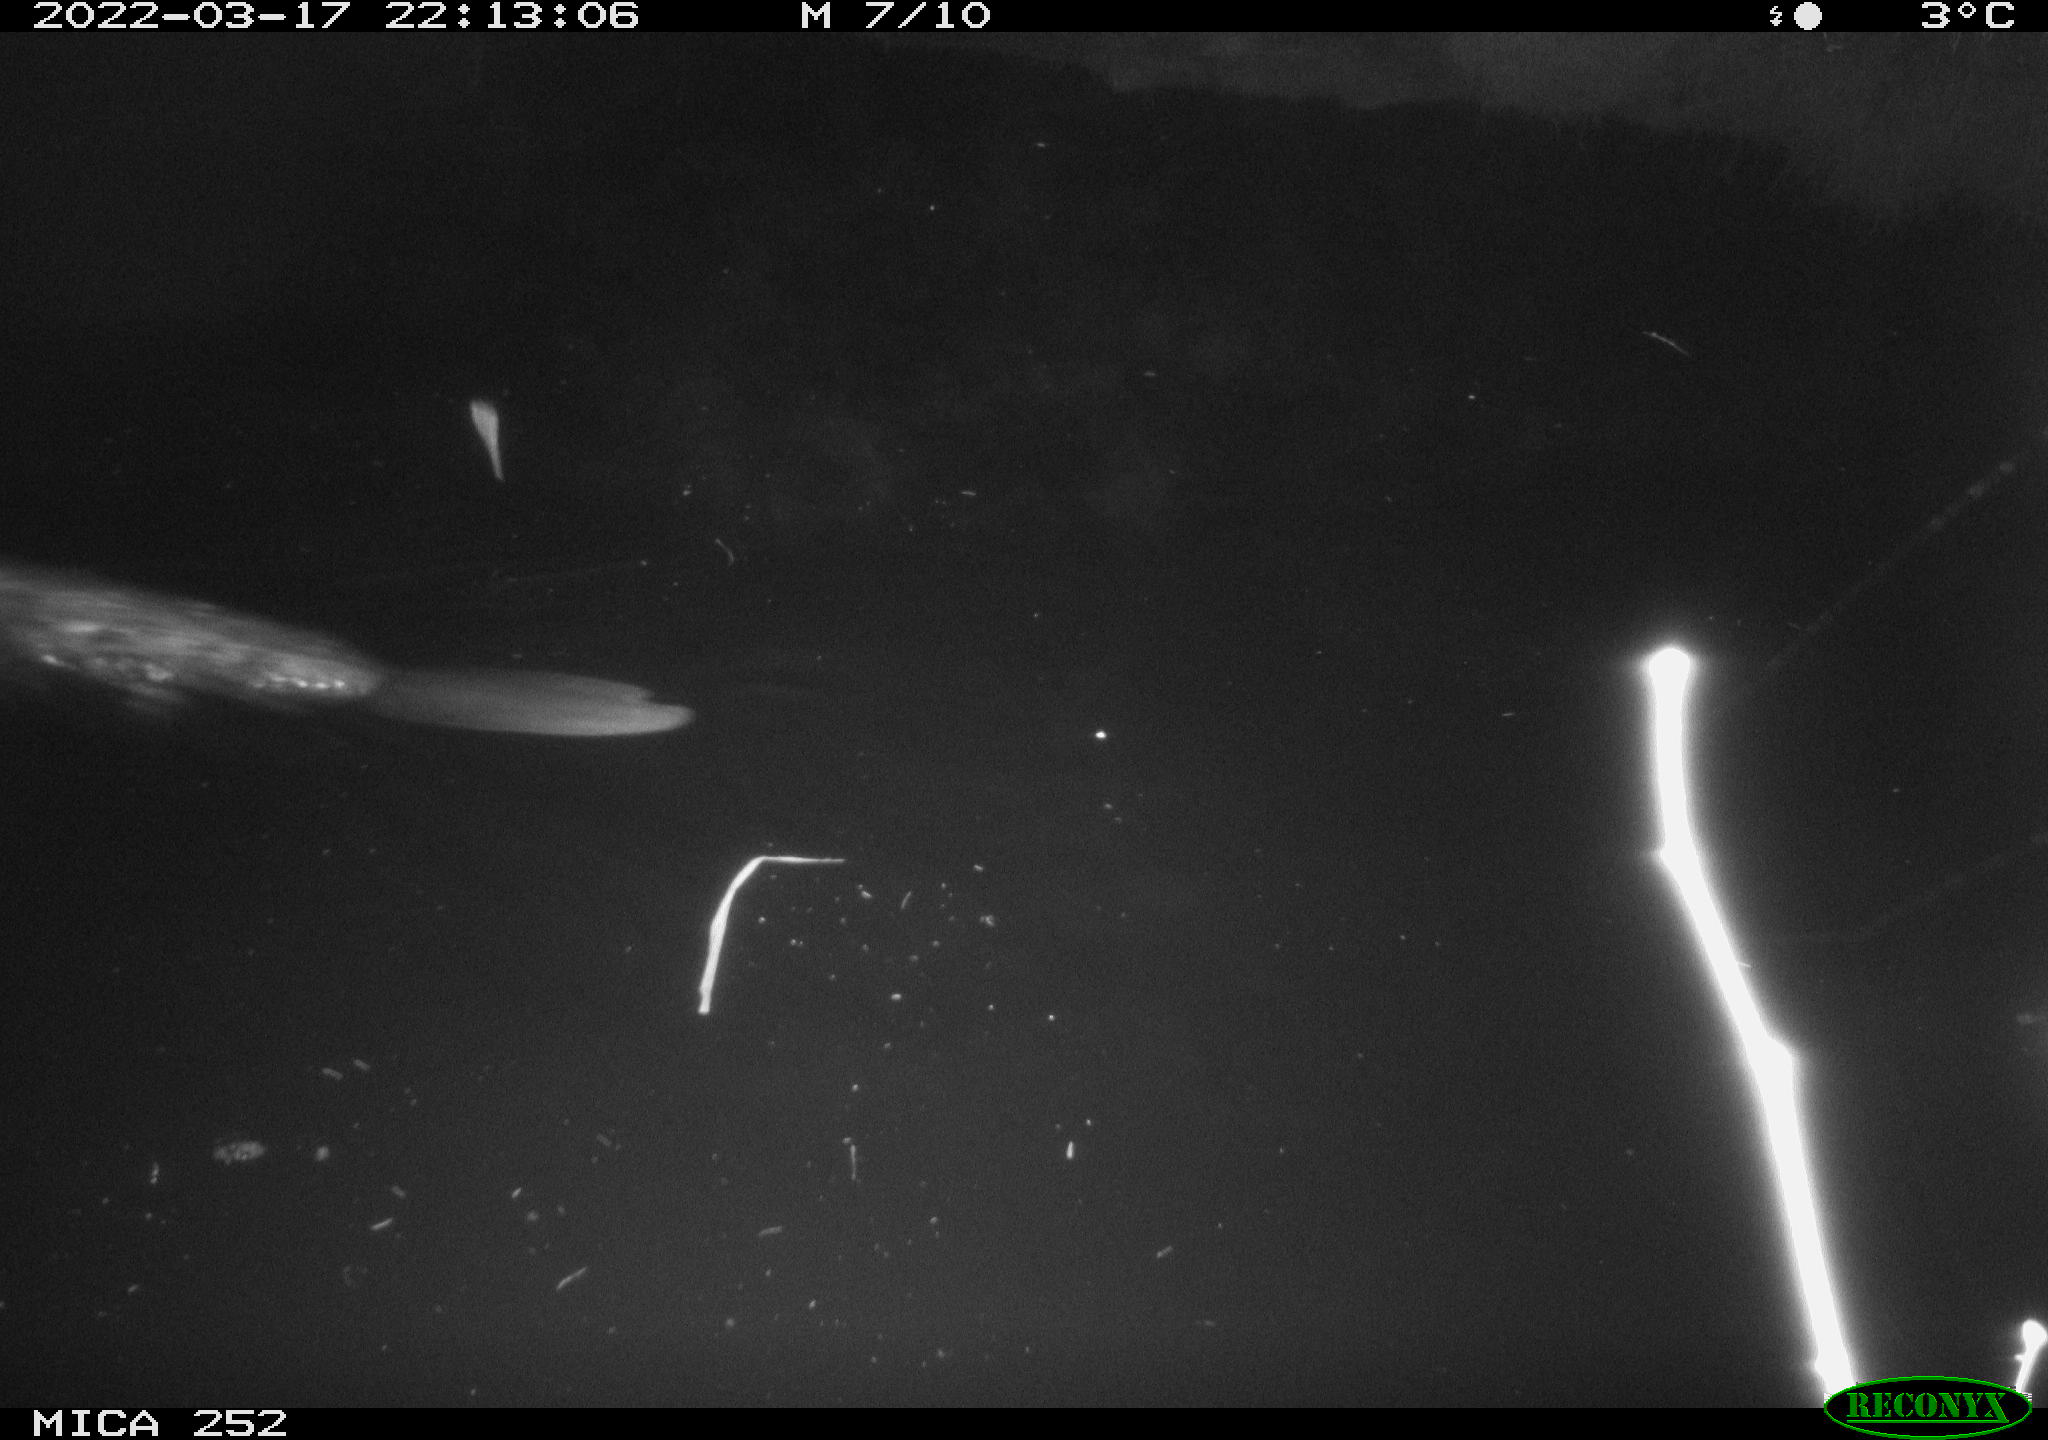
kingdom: Animalia
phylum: Chordata
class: Mammalia
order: Rodentia
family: Castoridae
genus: Castor
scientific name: Castor fiber
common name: Eurasian beaver
